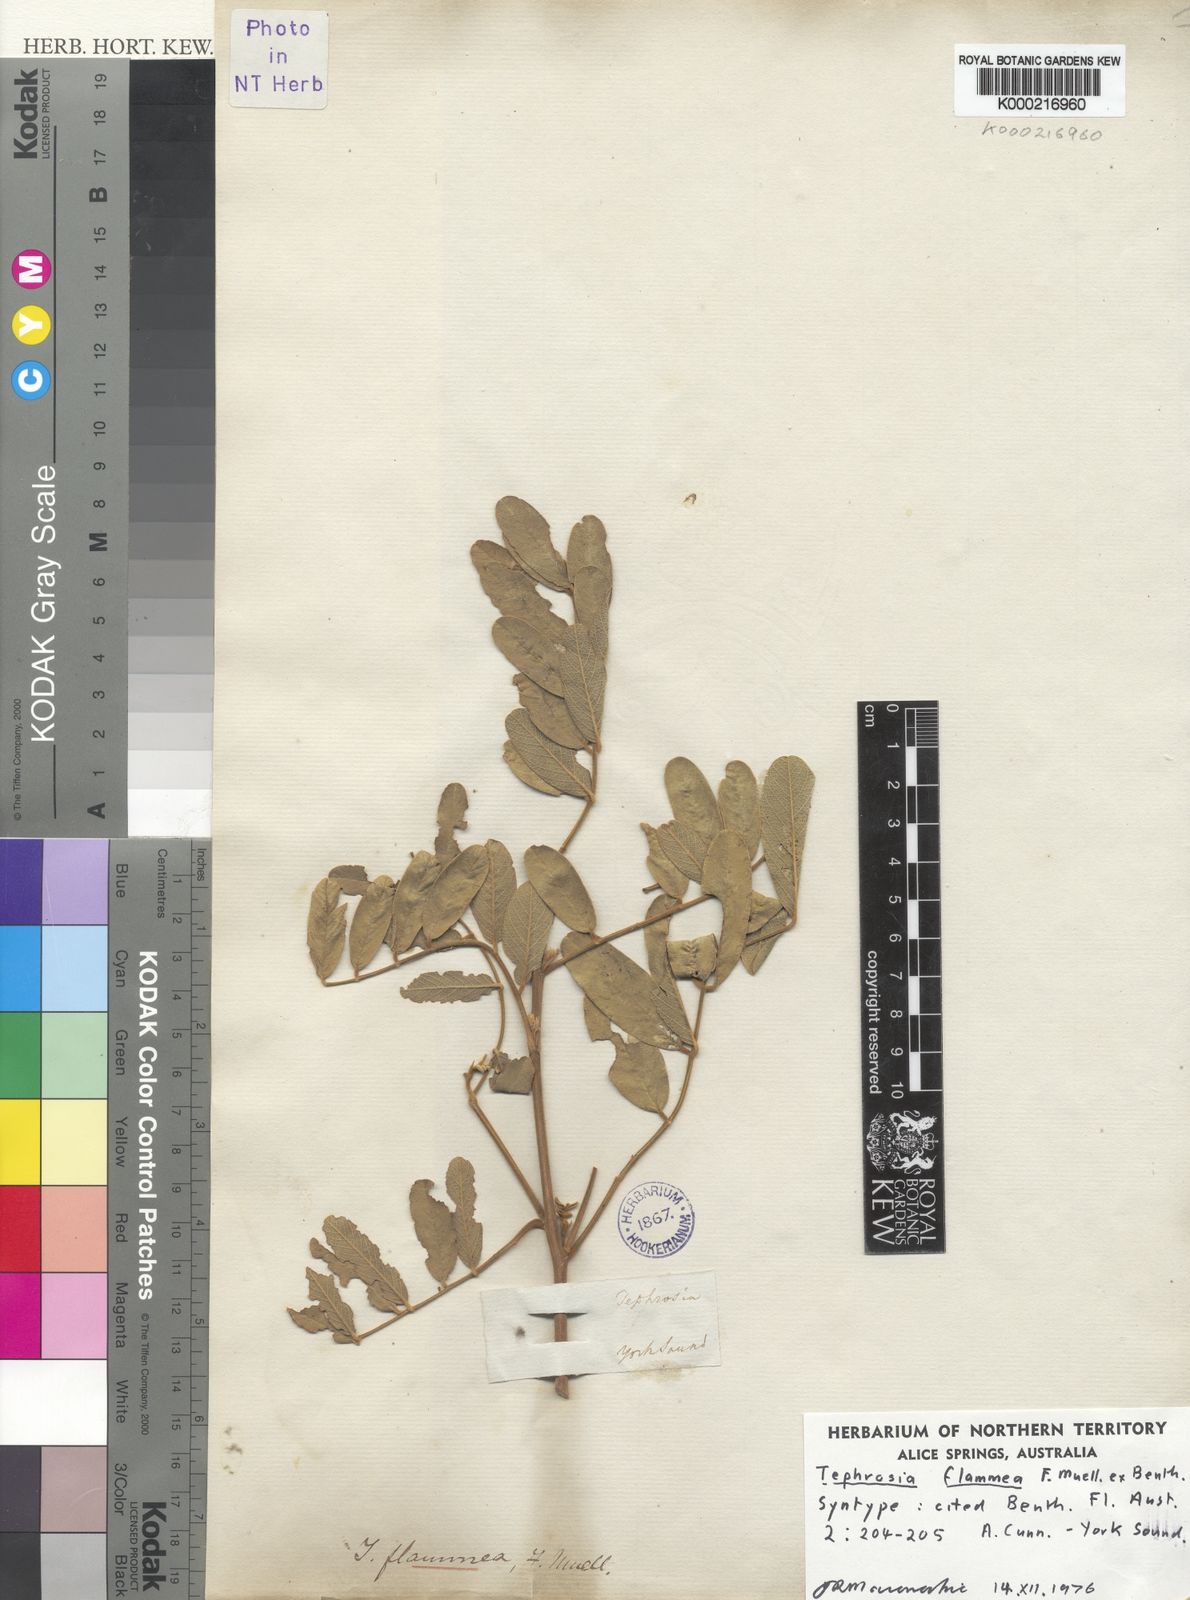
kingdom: Plantae
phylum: Tracheophyta
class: Magnoliopsida
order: Fabales
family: Fabaceae
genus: Tephrosia
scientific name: Tephrosia flammea
